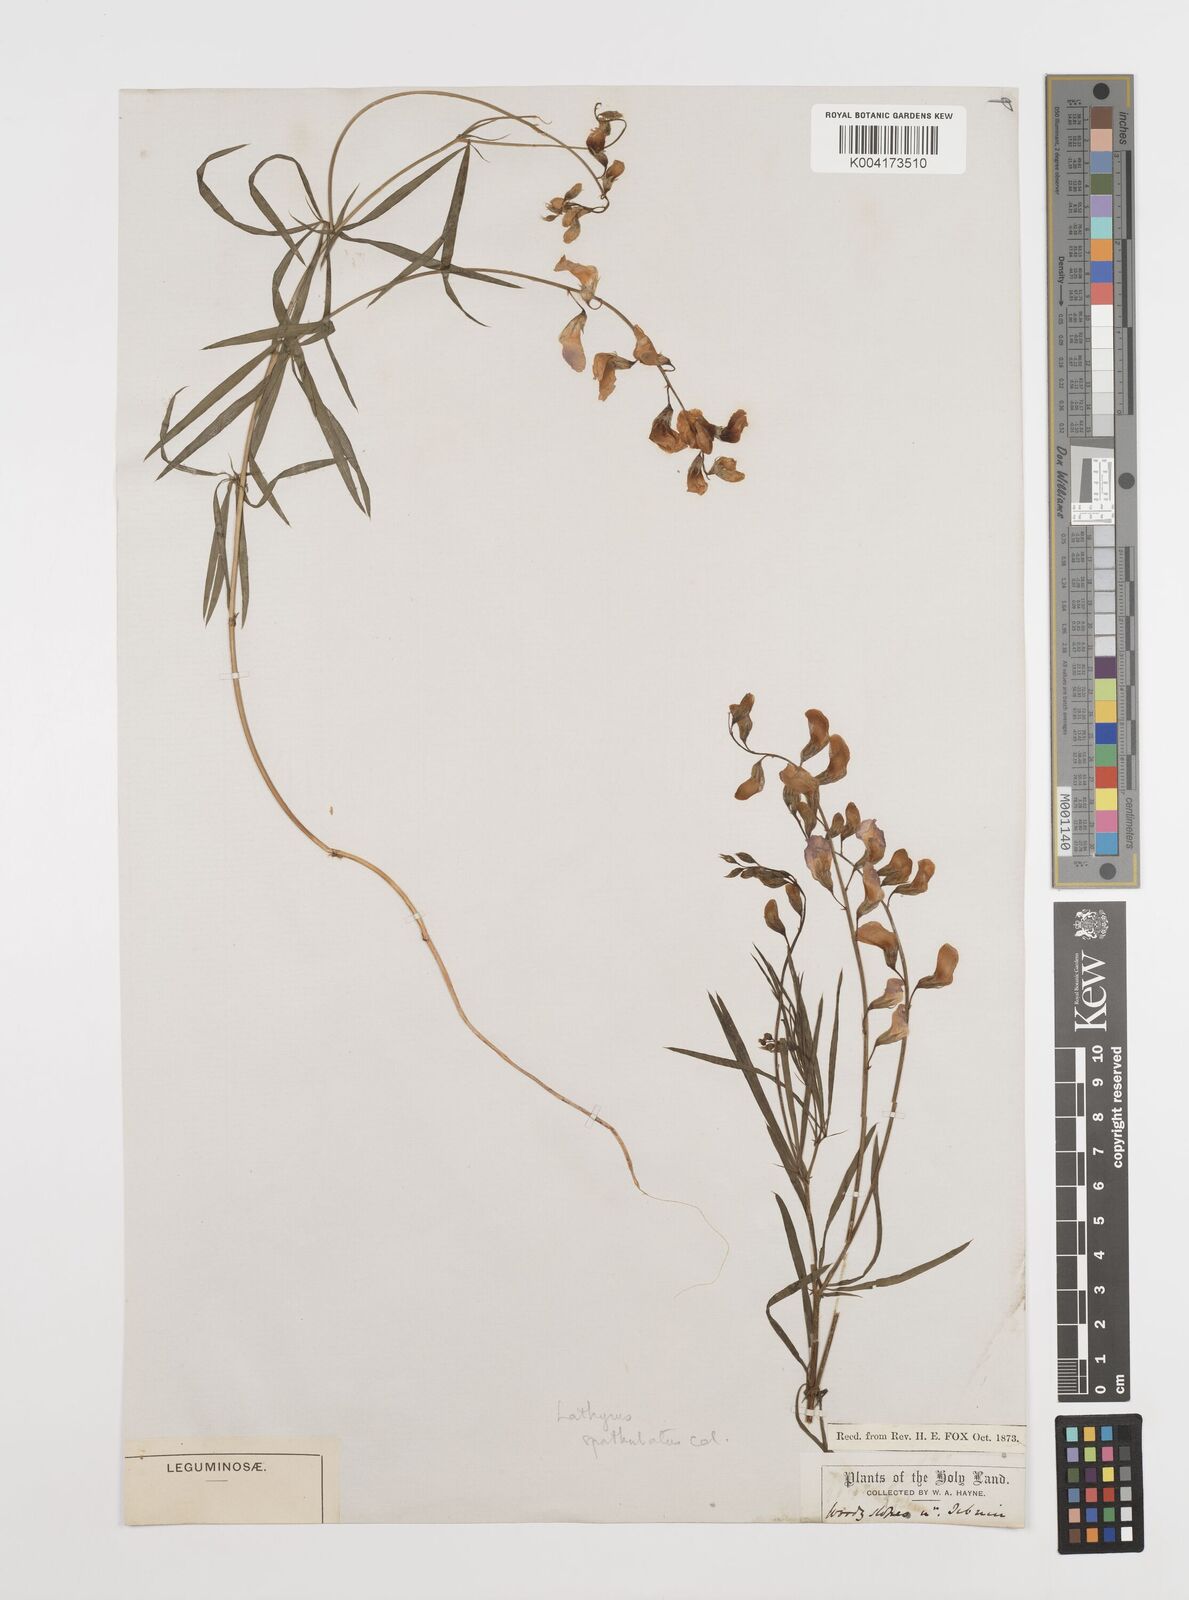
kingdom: Plantae
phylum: Tracheophyta
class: Magnoliopsida
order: Fabales
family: Fabaceae
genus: Lathyrus
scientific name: Lathyrus spathulatus
